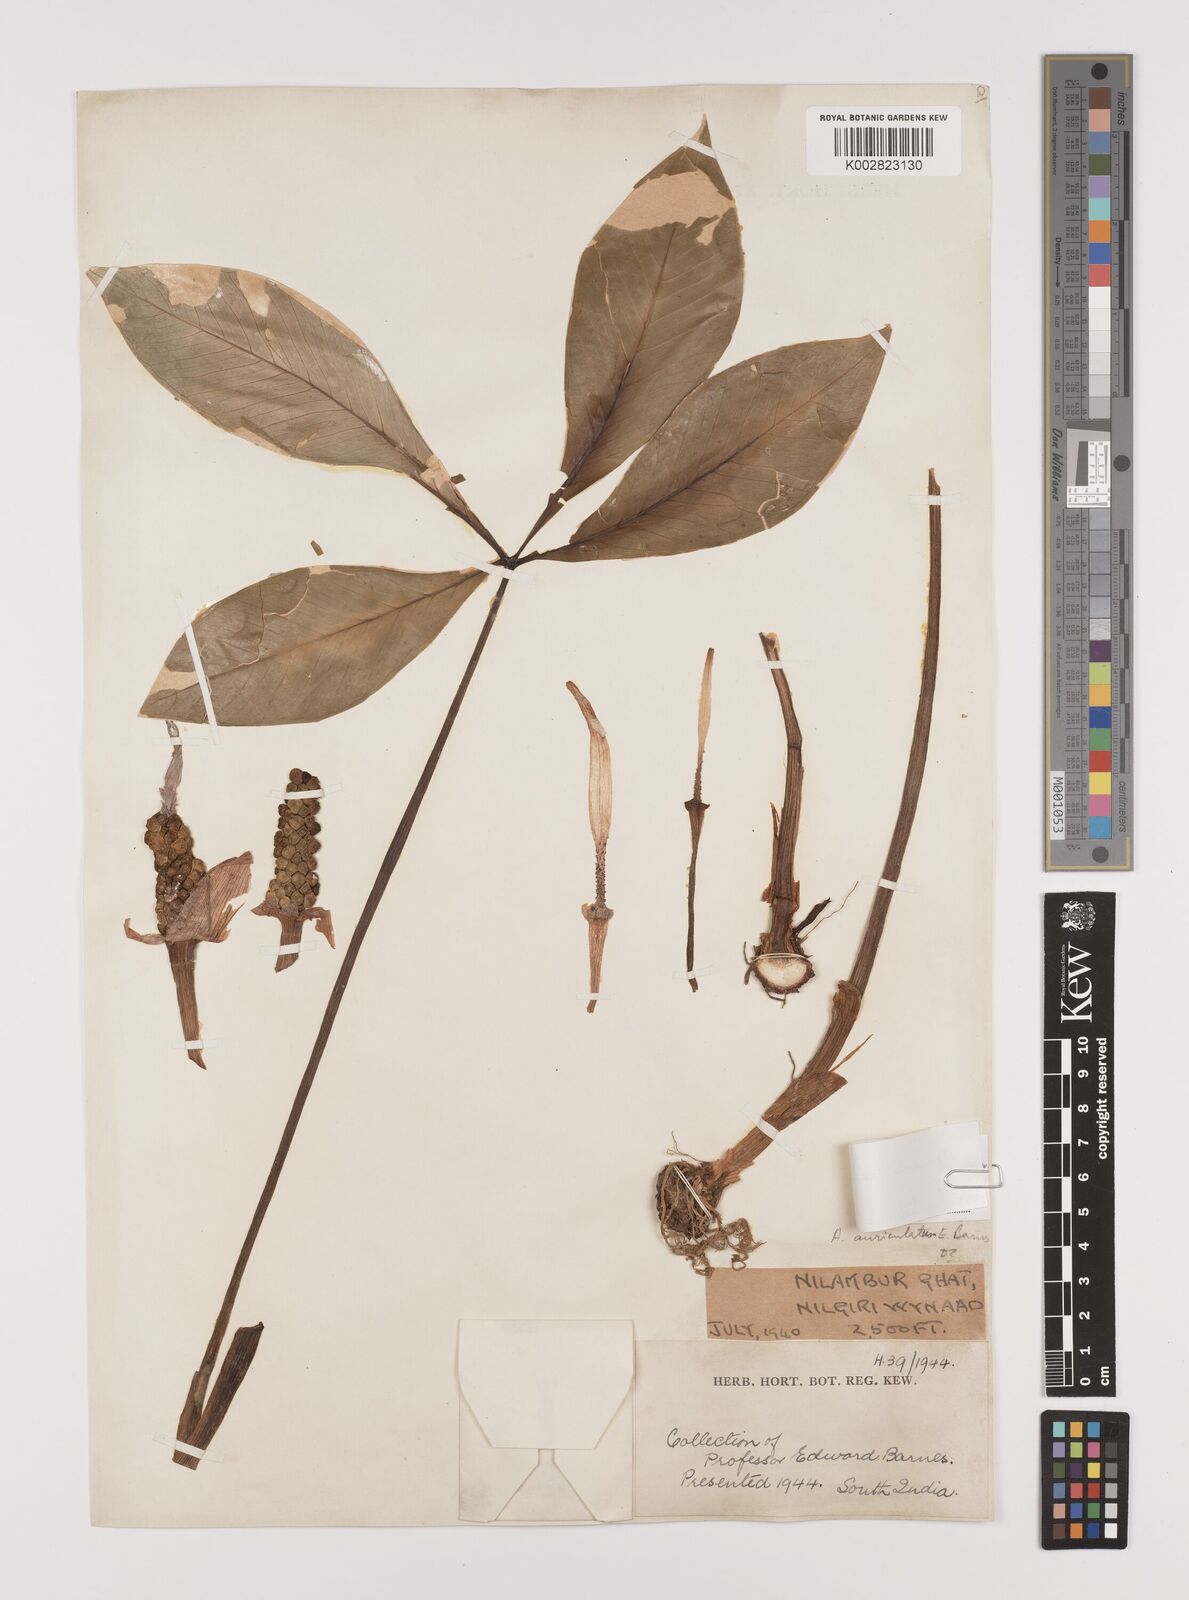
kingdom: Plantae
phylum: Tracheophyta
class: Liliopsida
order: Alismatales
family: Araceae
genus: Arisaema
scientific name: Arisaema nilamburense
